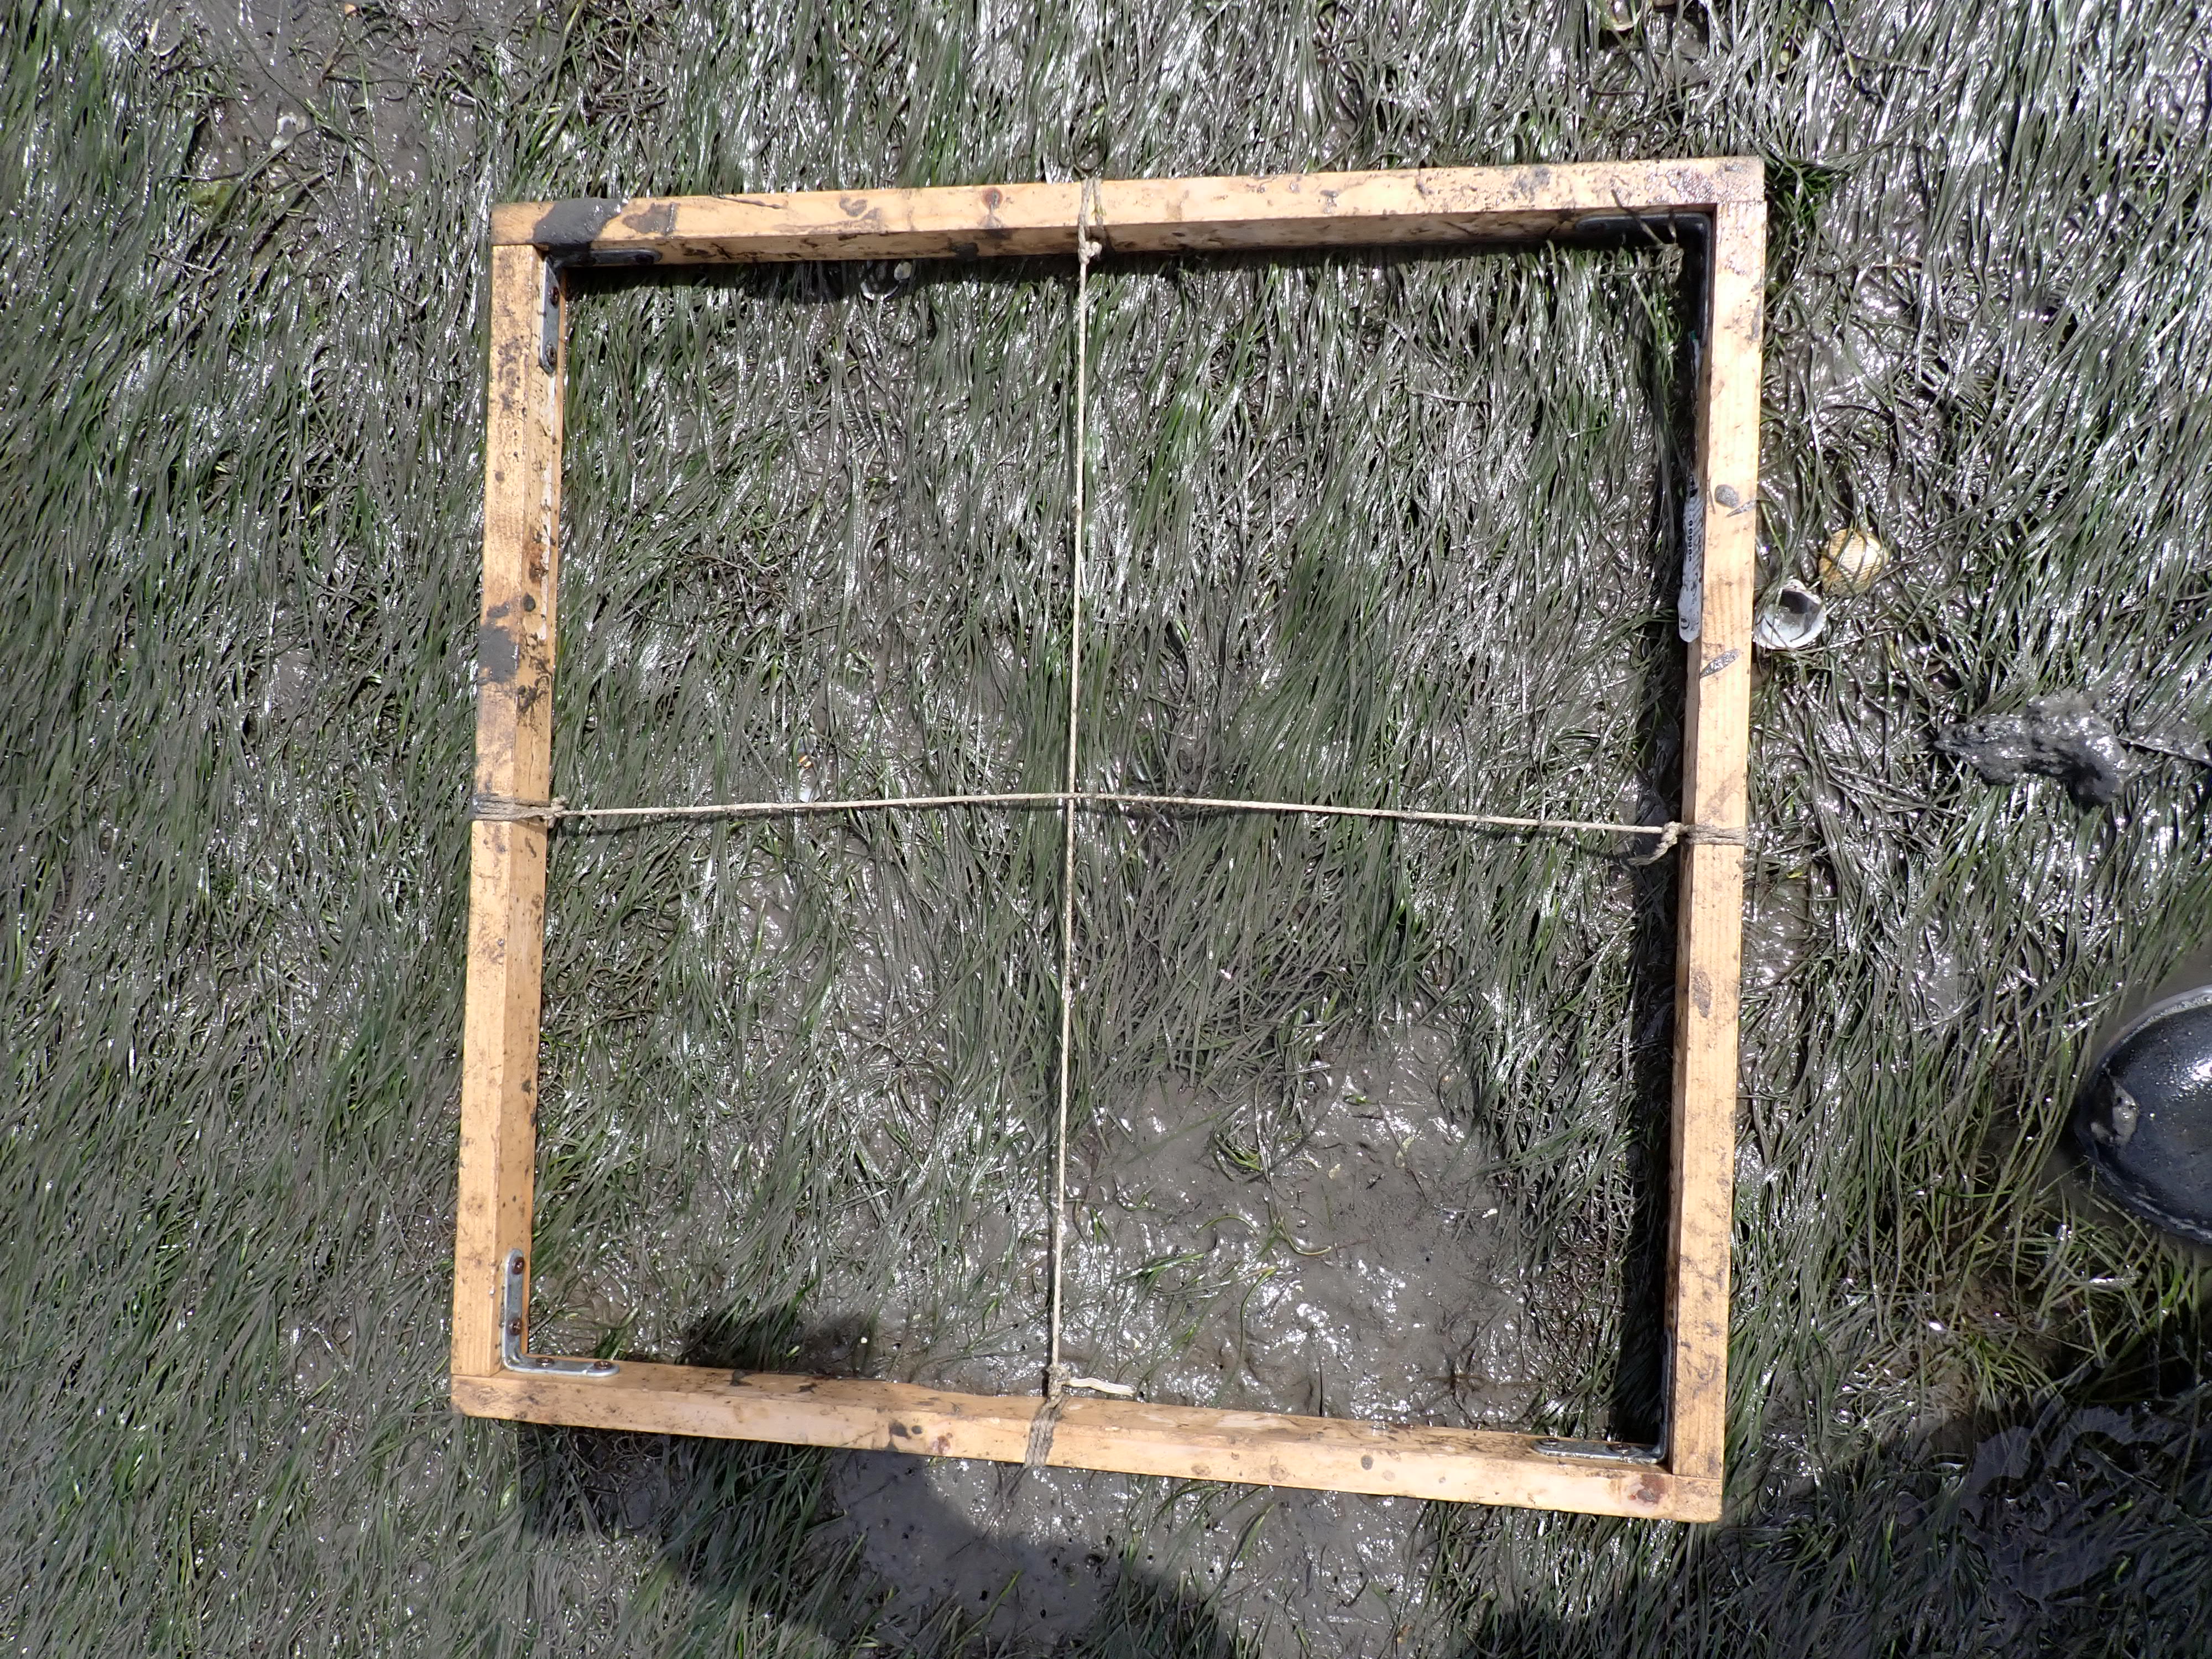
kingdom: Plantae
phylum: Tracheophyta
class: Liliopsida
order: Alismatales
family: Zosteraceae
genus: Zostera
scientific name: Zostera noltii
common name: Dwarf eelgrass
